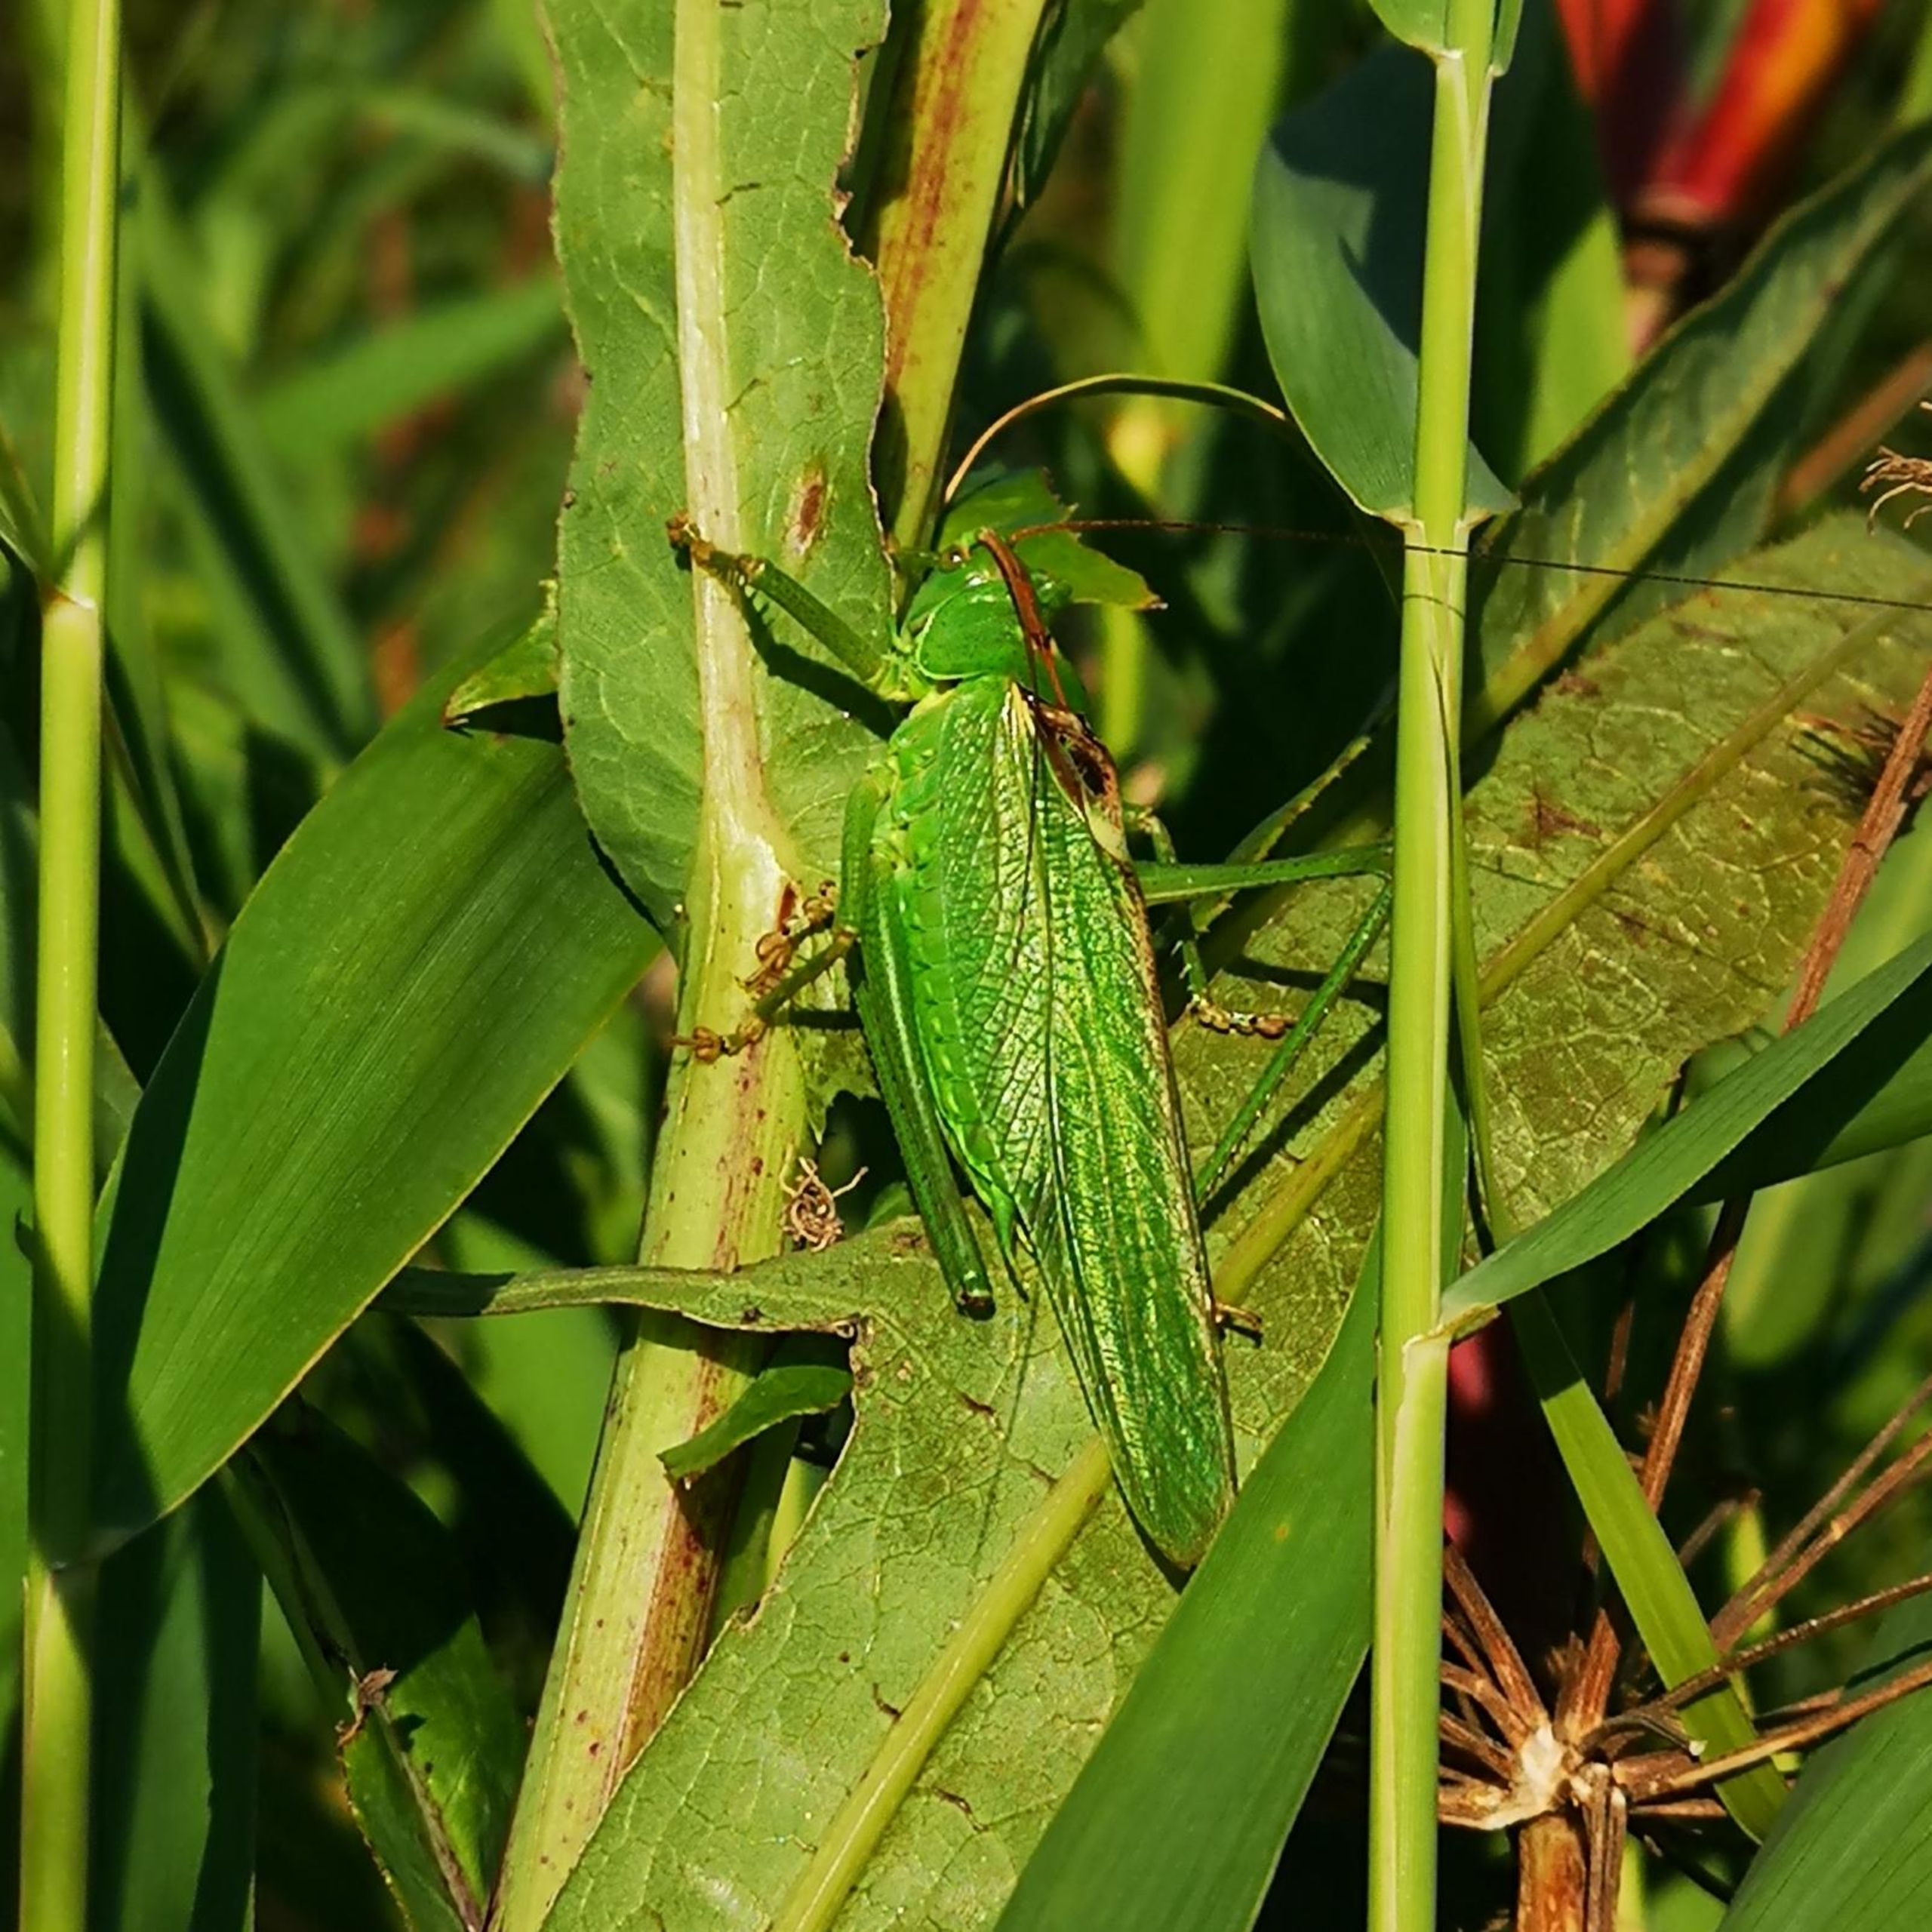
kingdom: Animalia
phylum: Arthropoda
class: Insecta
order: Orthoptera
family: Tettigoniidae
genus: Tettigonia
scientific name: Tettigonia viridissima
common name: Stor grøn løvgræshoppe
